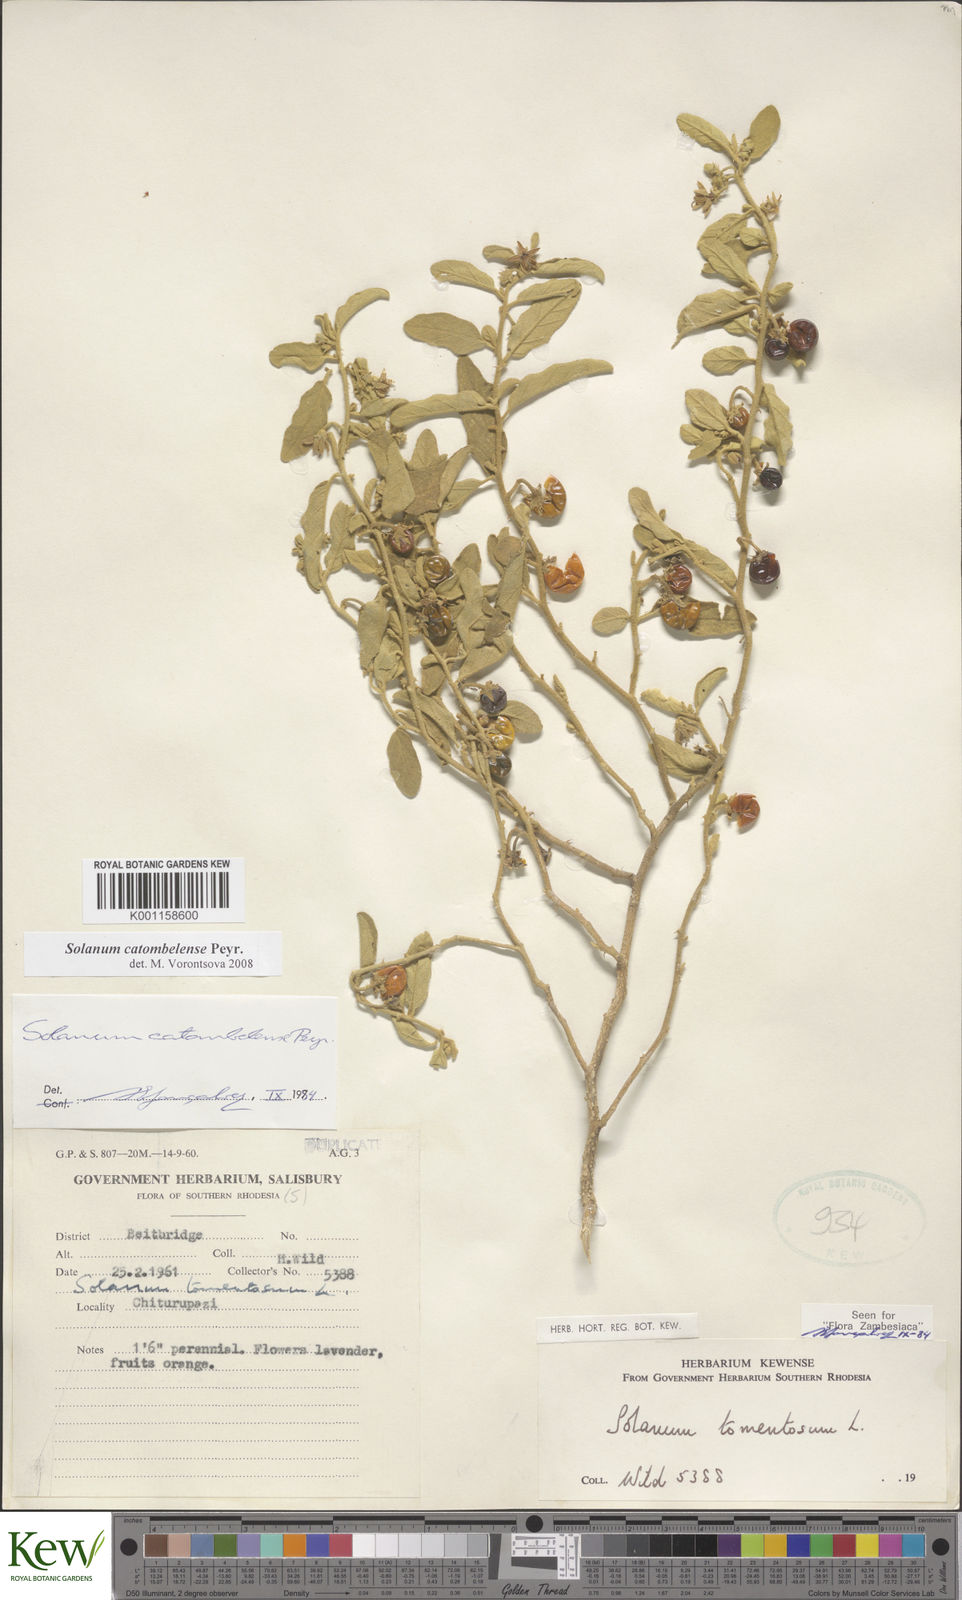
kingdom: Plantae
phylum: Tracheophyta
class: Magnoliopsida
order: Solanales
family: Solanaceae
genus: Solanum
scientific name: Solanum catombelense
